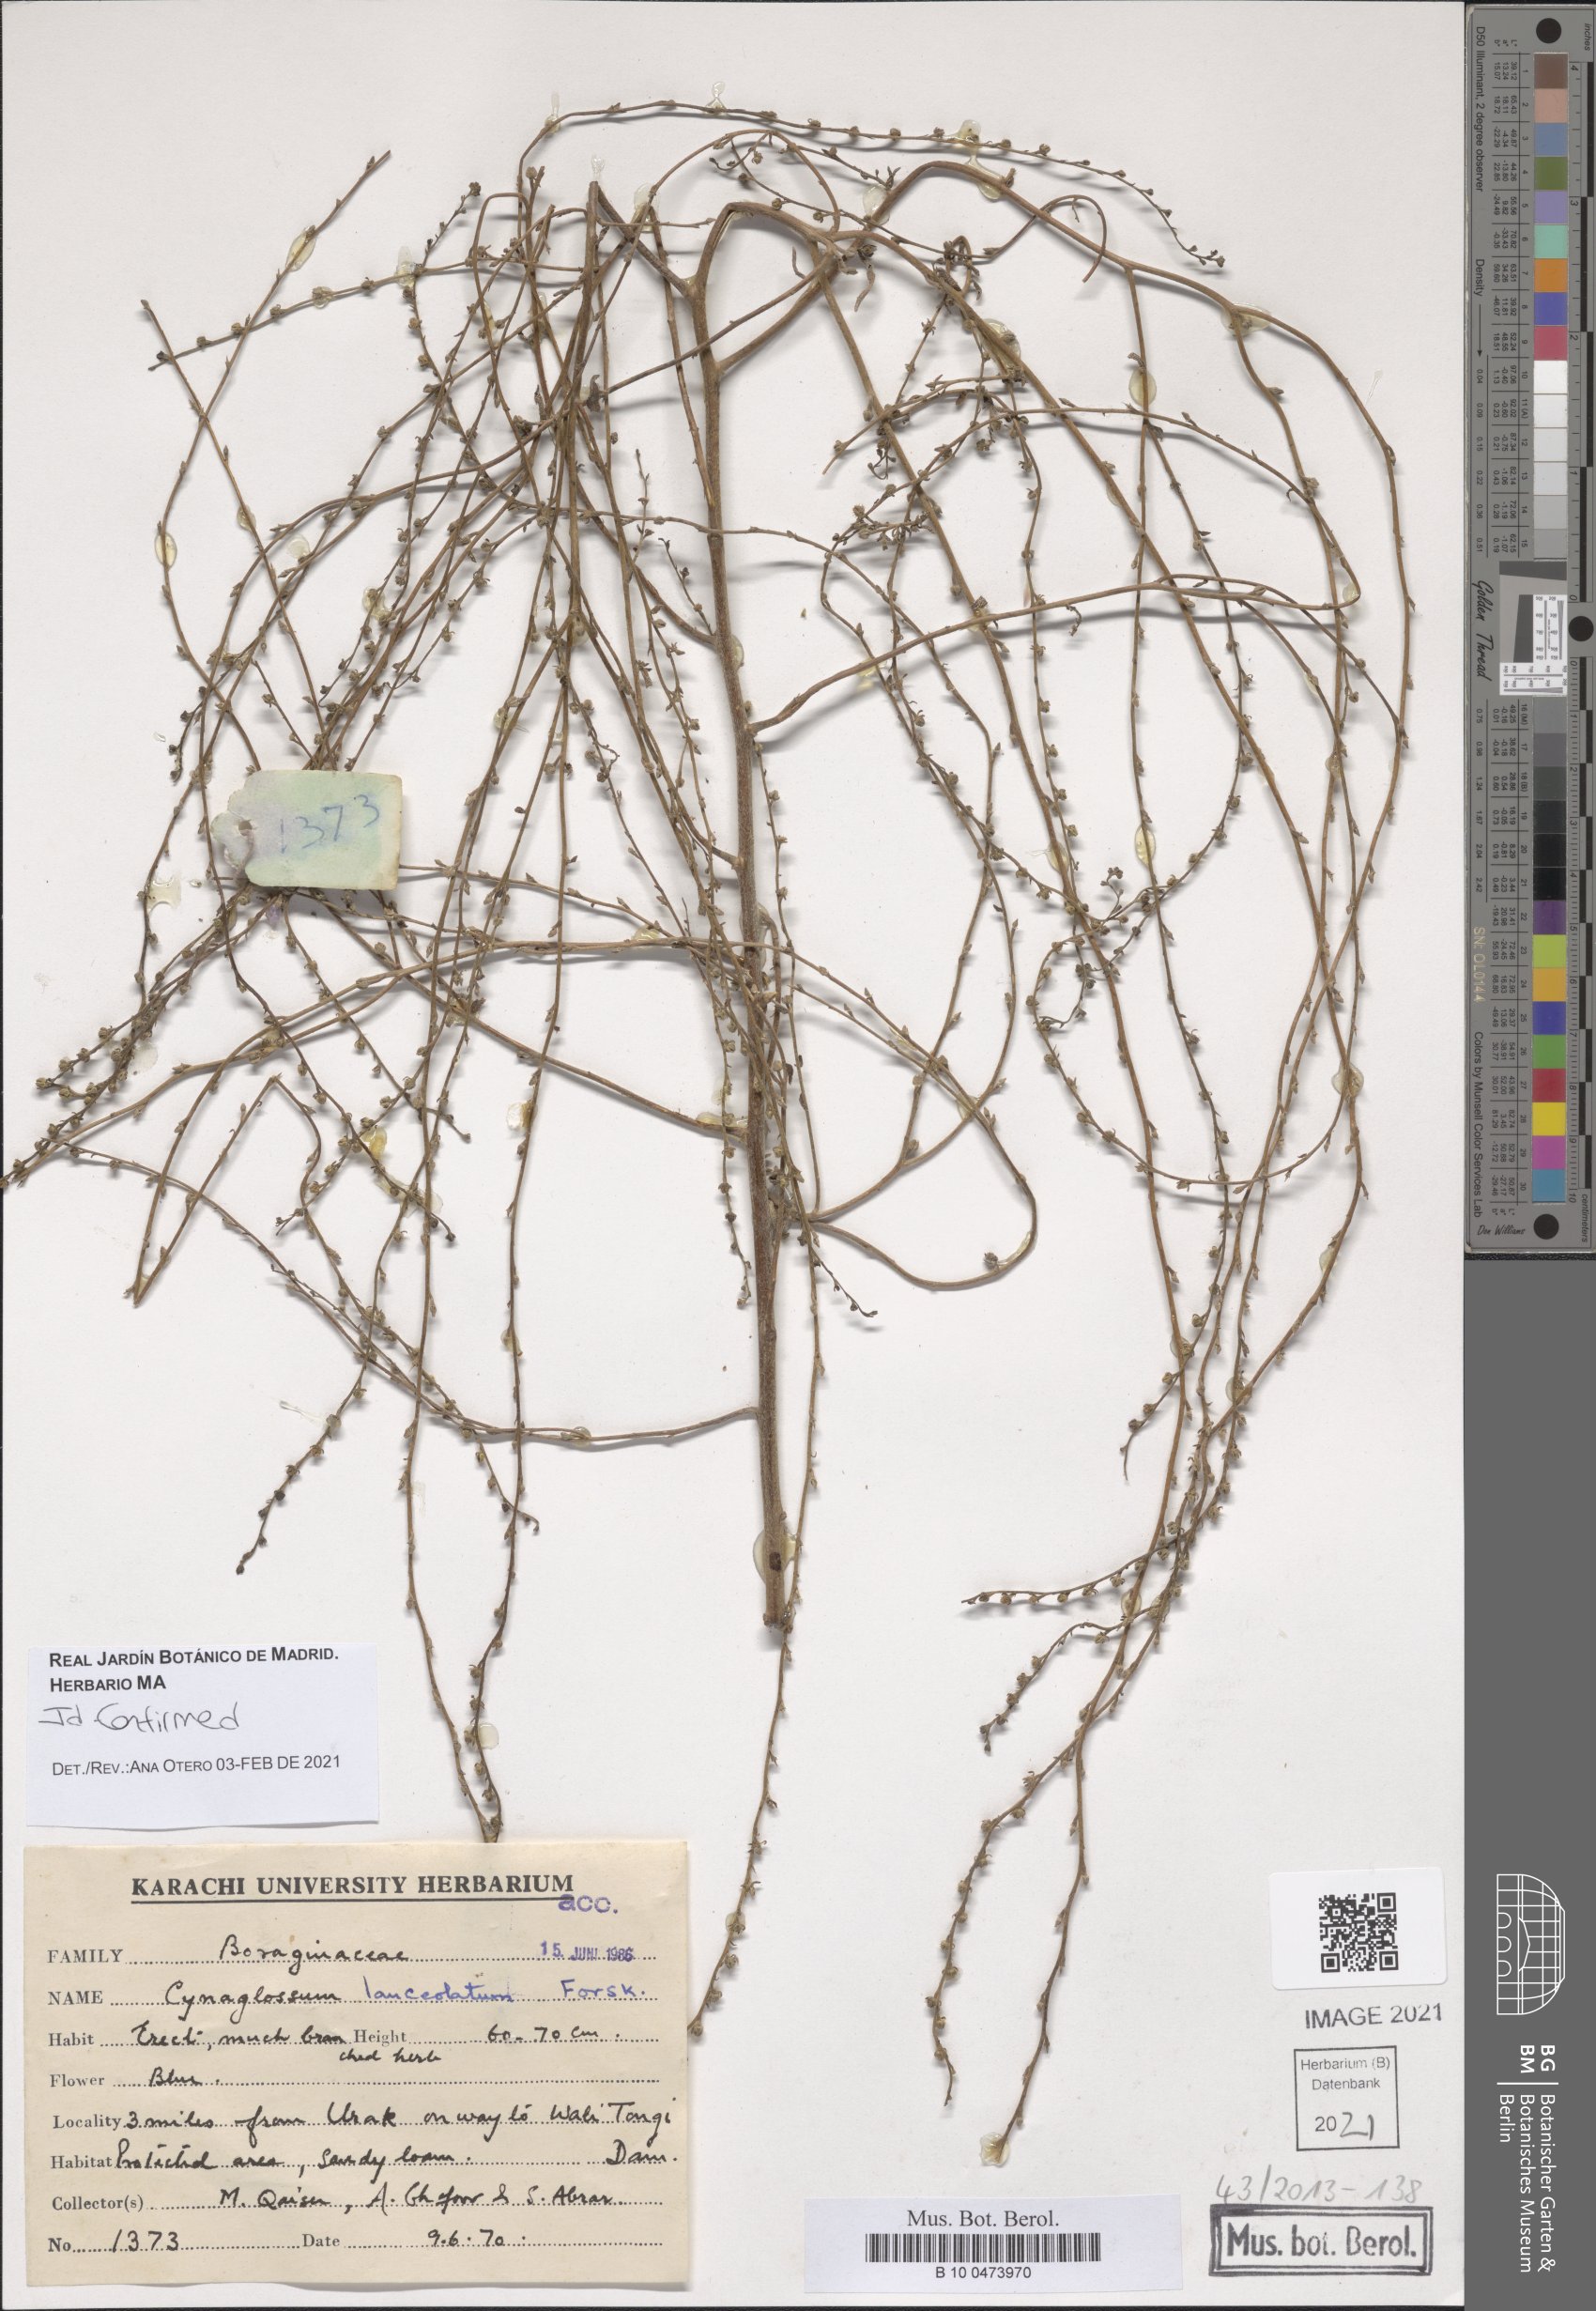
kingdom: Plantae
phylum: Tracheophyta
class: Magnoliopsida
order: Boraginales
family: Boraginaceae
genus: Paracynoglossum
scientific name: Paracynoglossum lanceolatum
